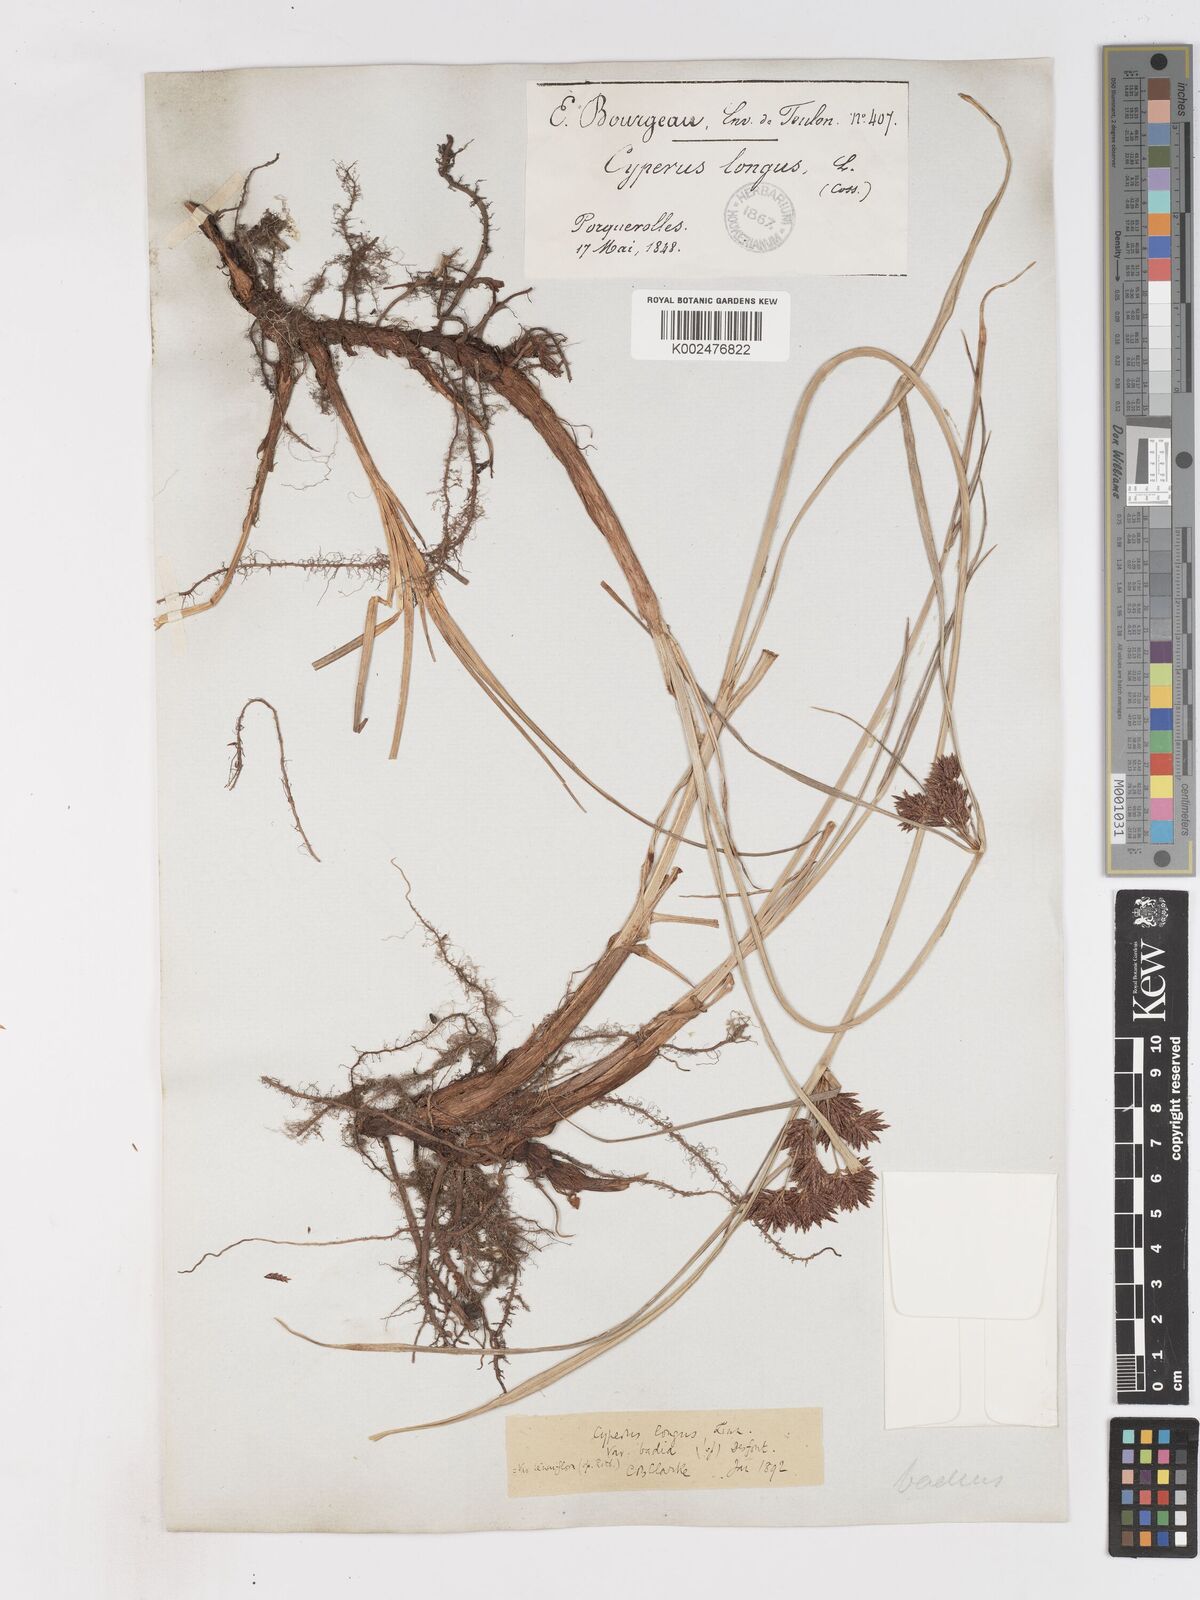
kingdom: Plantae
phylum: Tracheophyta
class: Liliopsida
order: Poales
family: Cyperaceae
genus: Cyperus
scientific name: Cyperus longus
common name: Galingale
